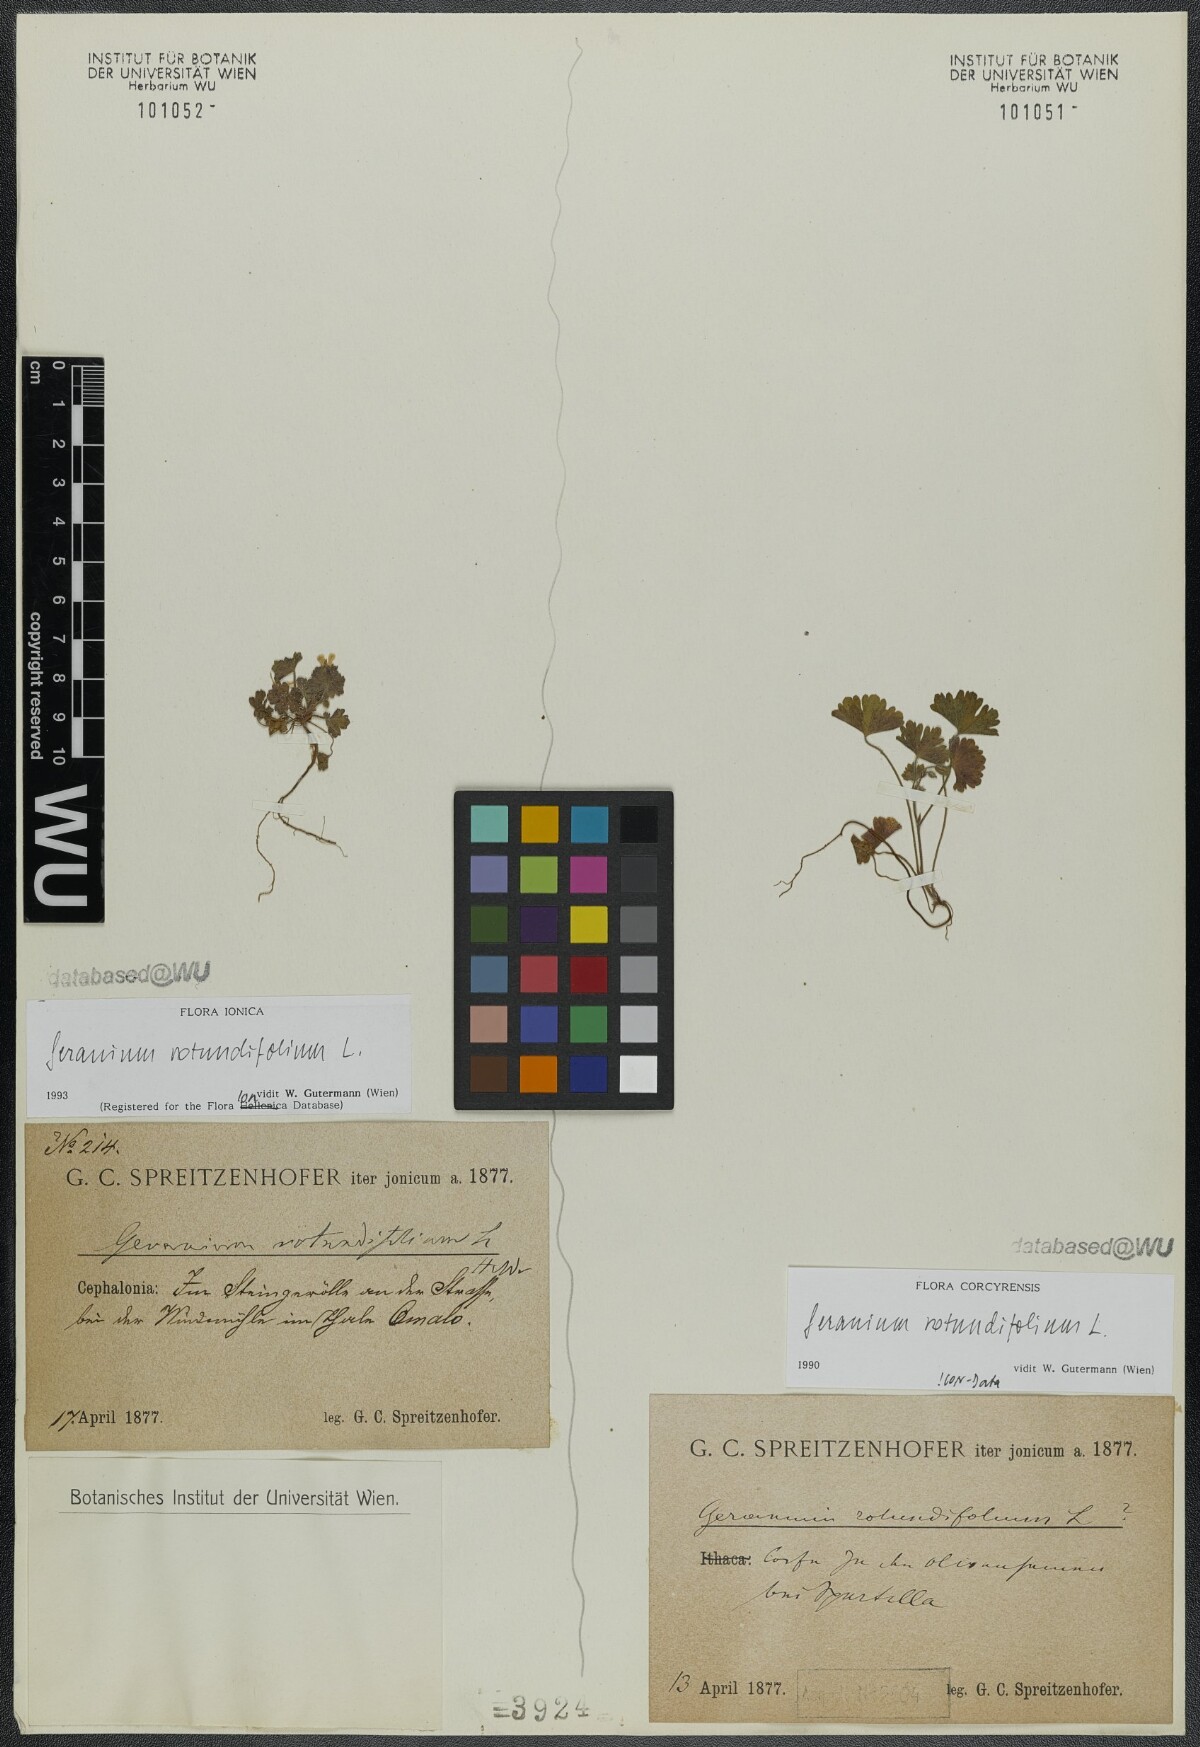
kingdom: Plantae
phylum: Tracheophyta
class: Magnoliopsida
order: Geraniales
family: Geraniaceae
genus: Geranium
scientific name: Geranium rotundifolium
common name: Round-leaved crane's-bill
